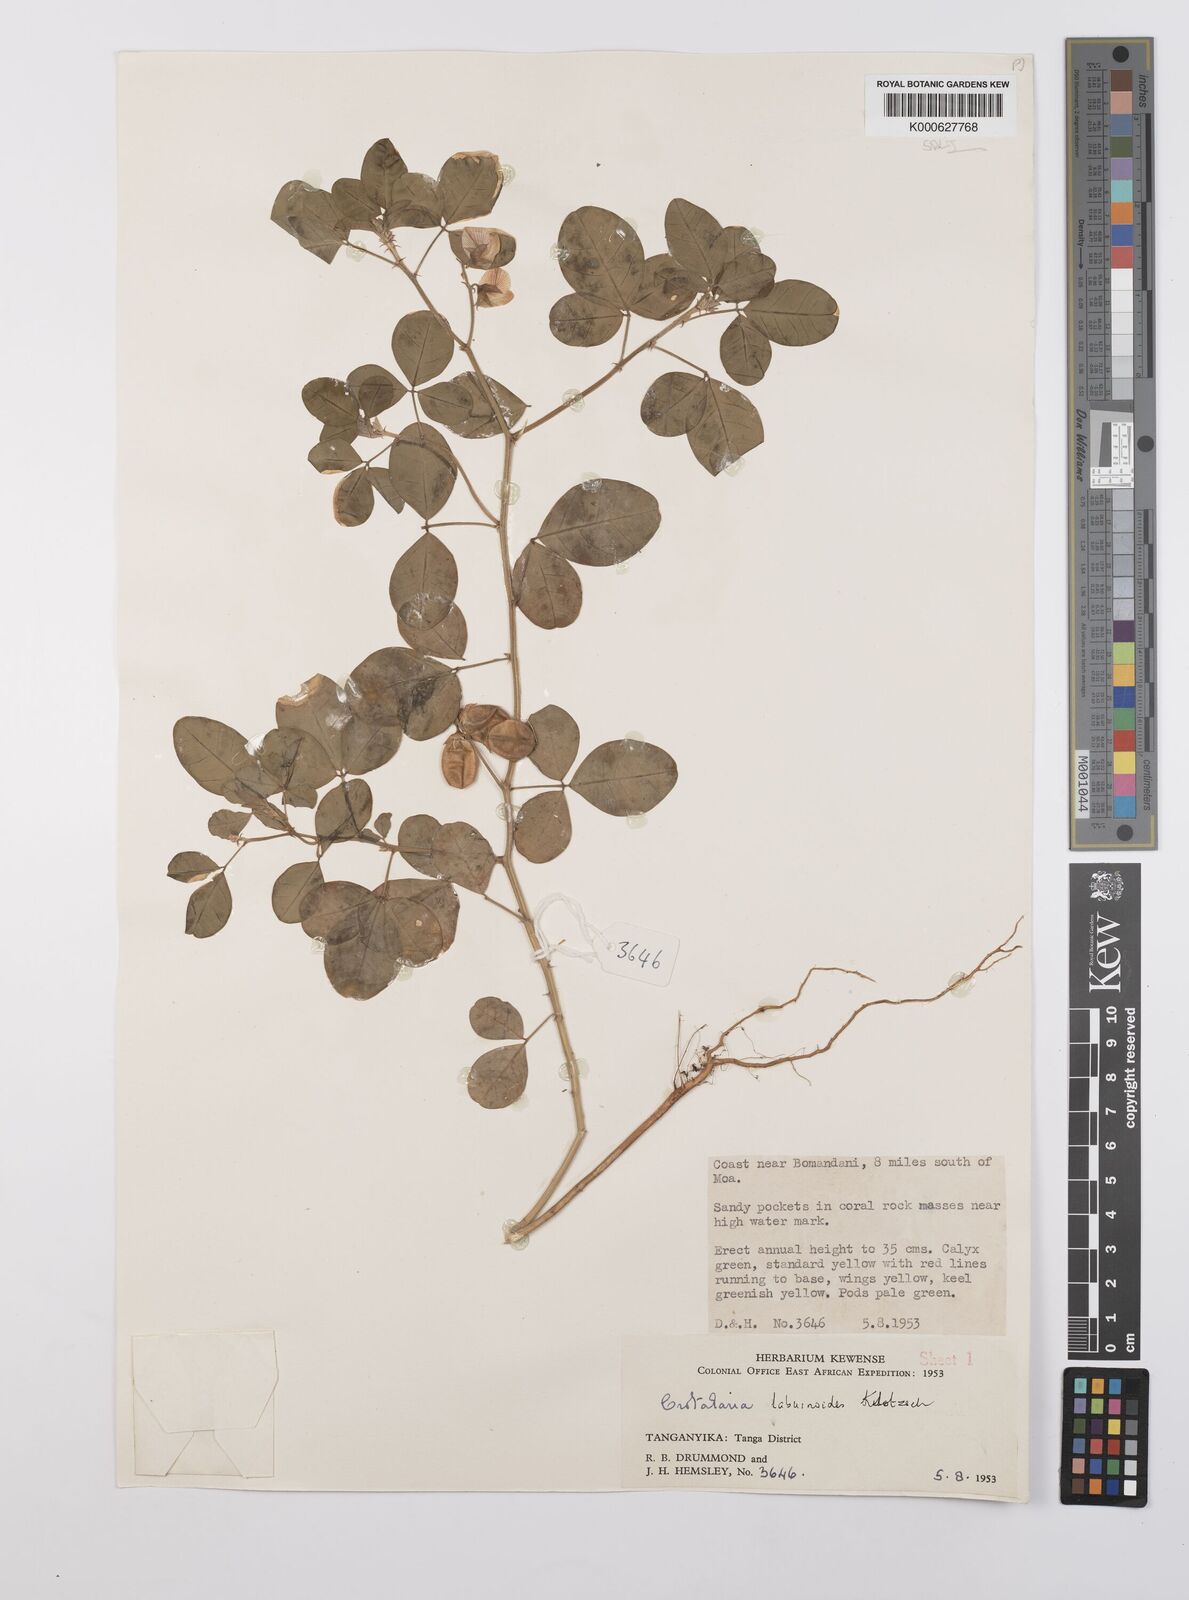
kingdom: Plantae
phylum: Tracheophyta
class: Magnoliopsida
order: Fabales
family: Fabaceae
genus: Crotalaria
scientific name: Crotalaria laburnoides
